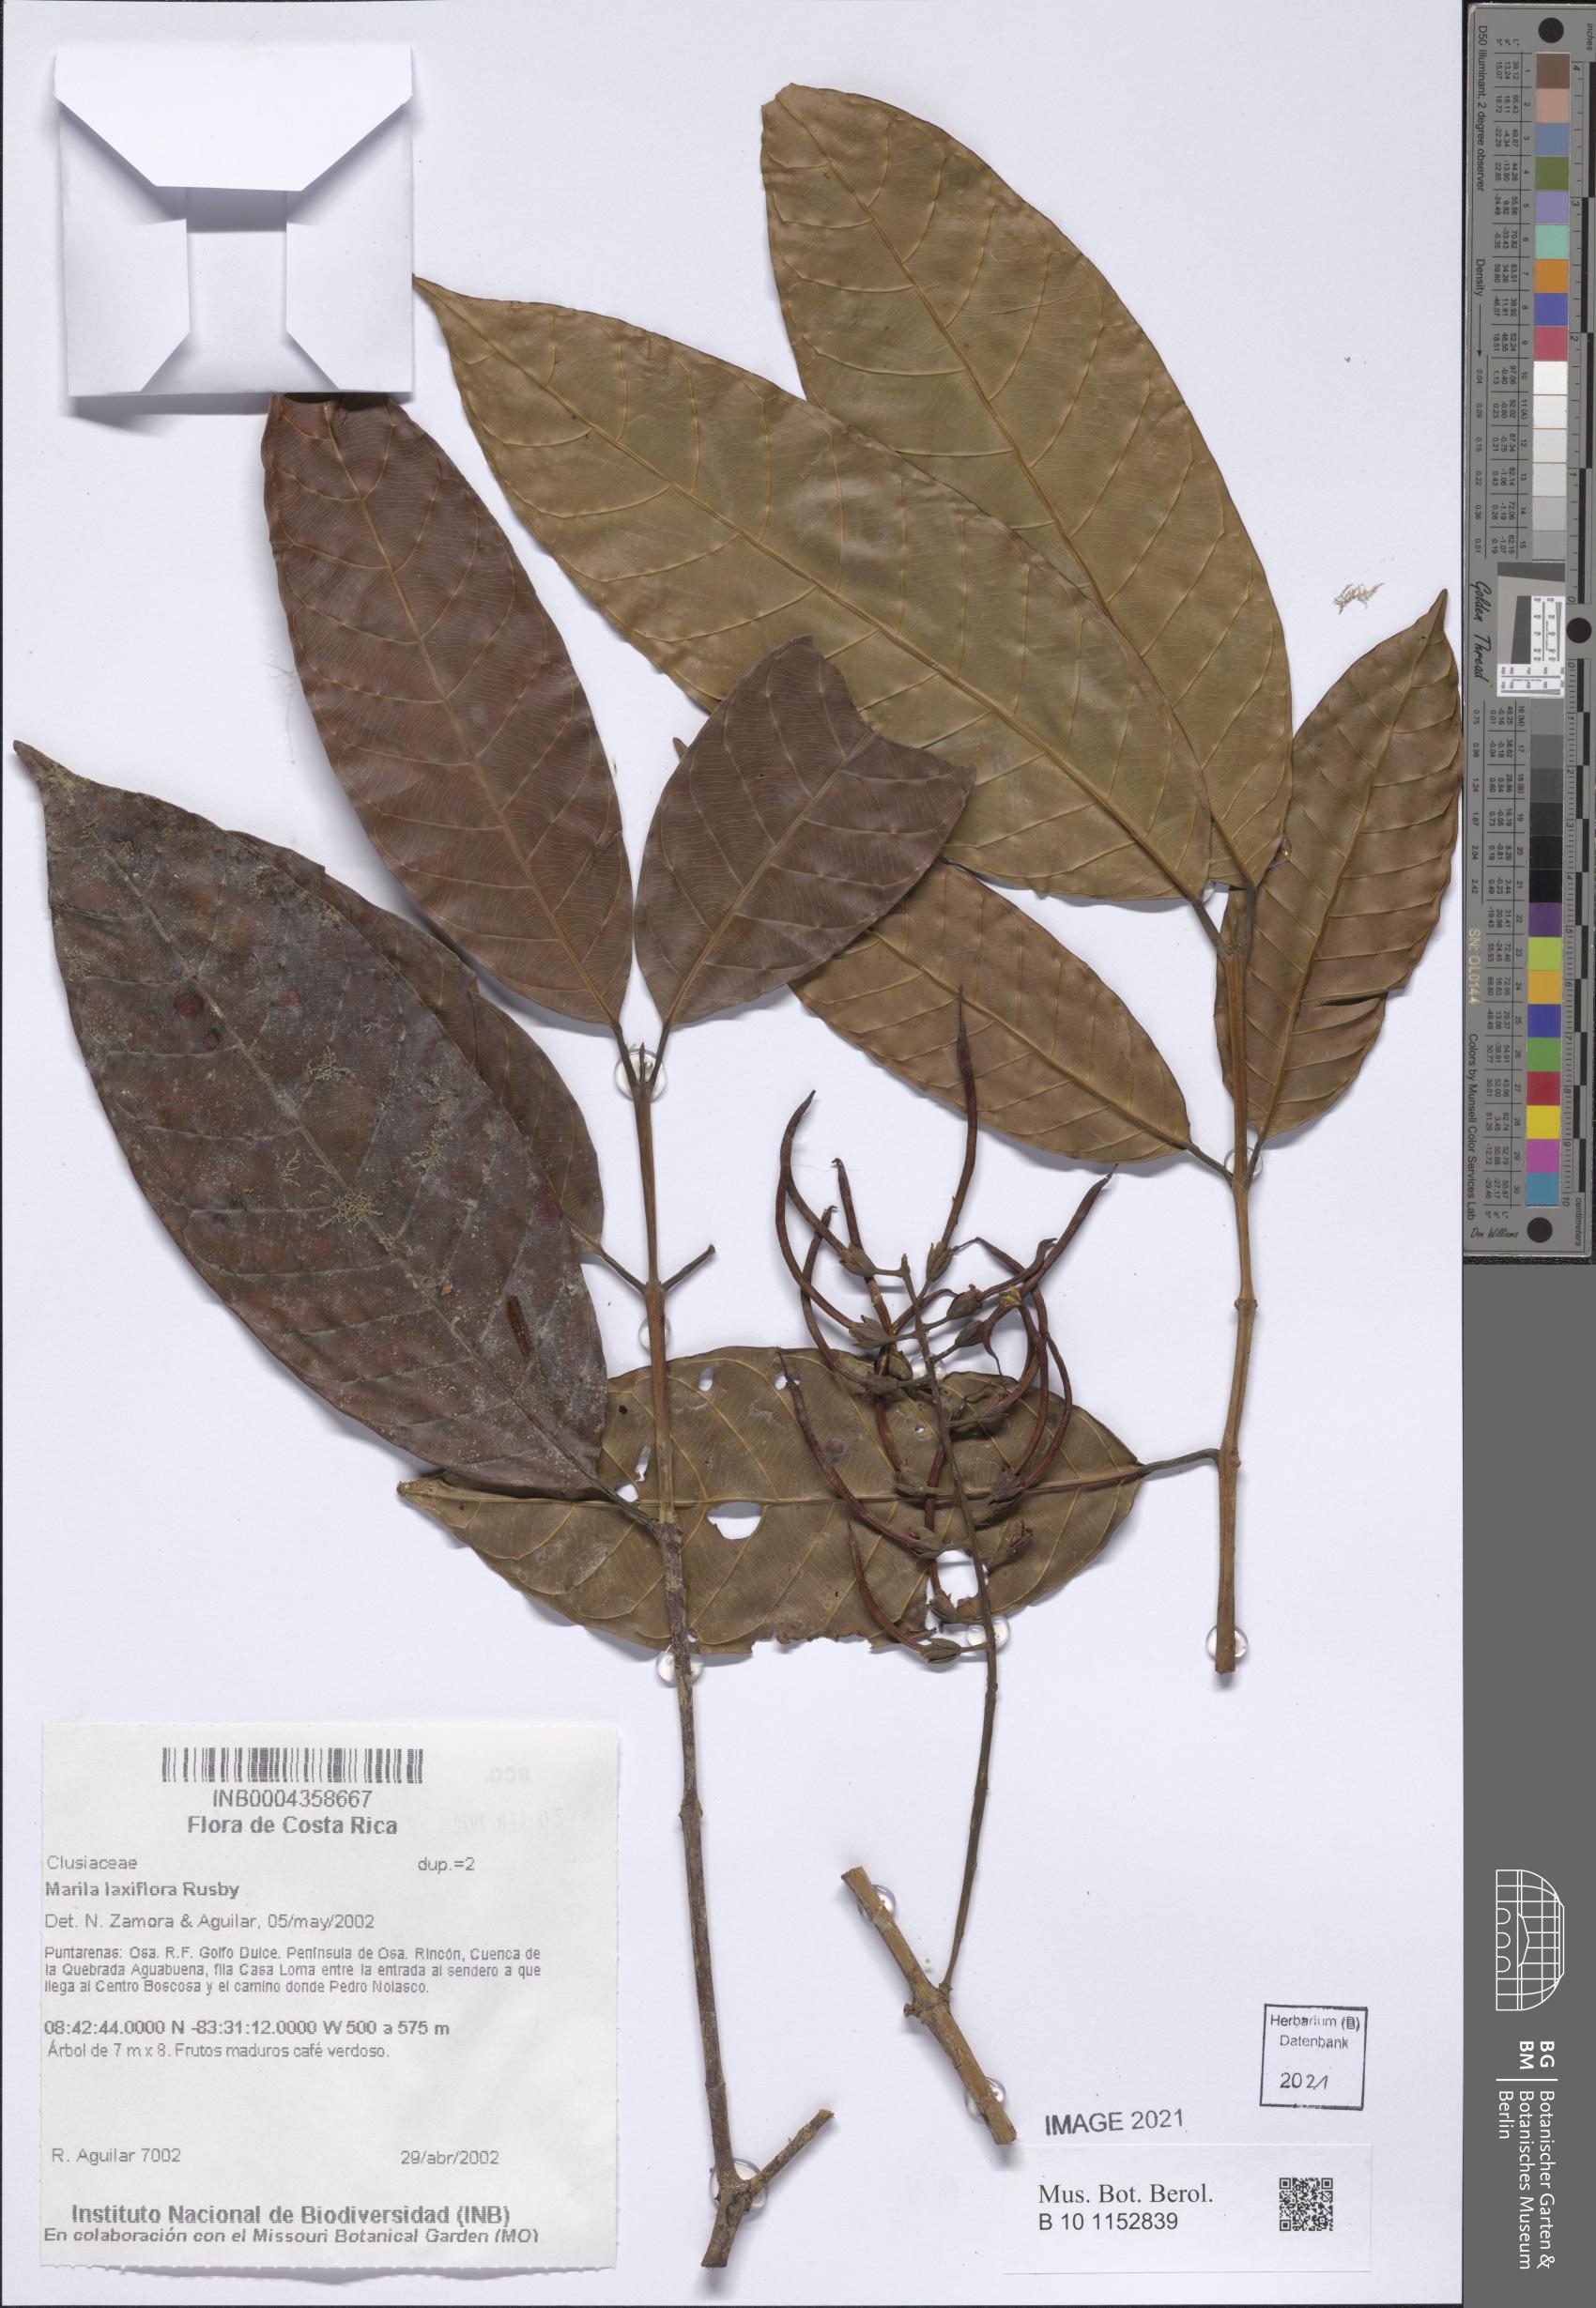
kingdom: Plantae
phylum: Tracheophyta
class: Magnoliopsida
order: Malpighiales
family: Calophyllaceae
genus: Marila
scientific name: Marila laxiflora
